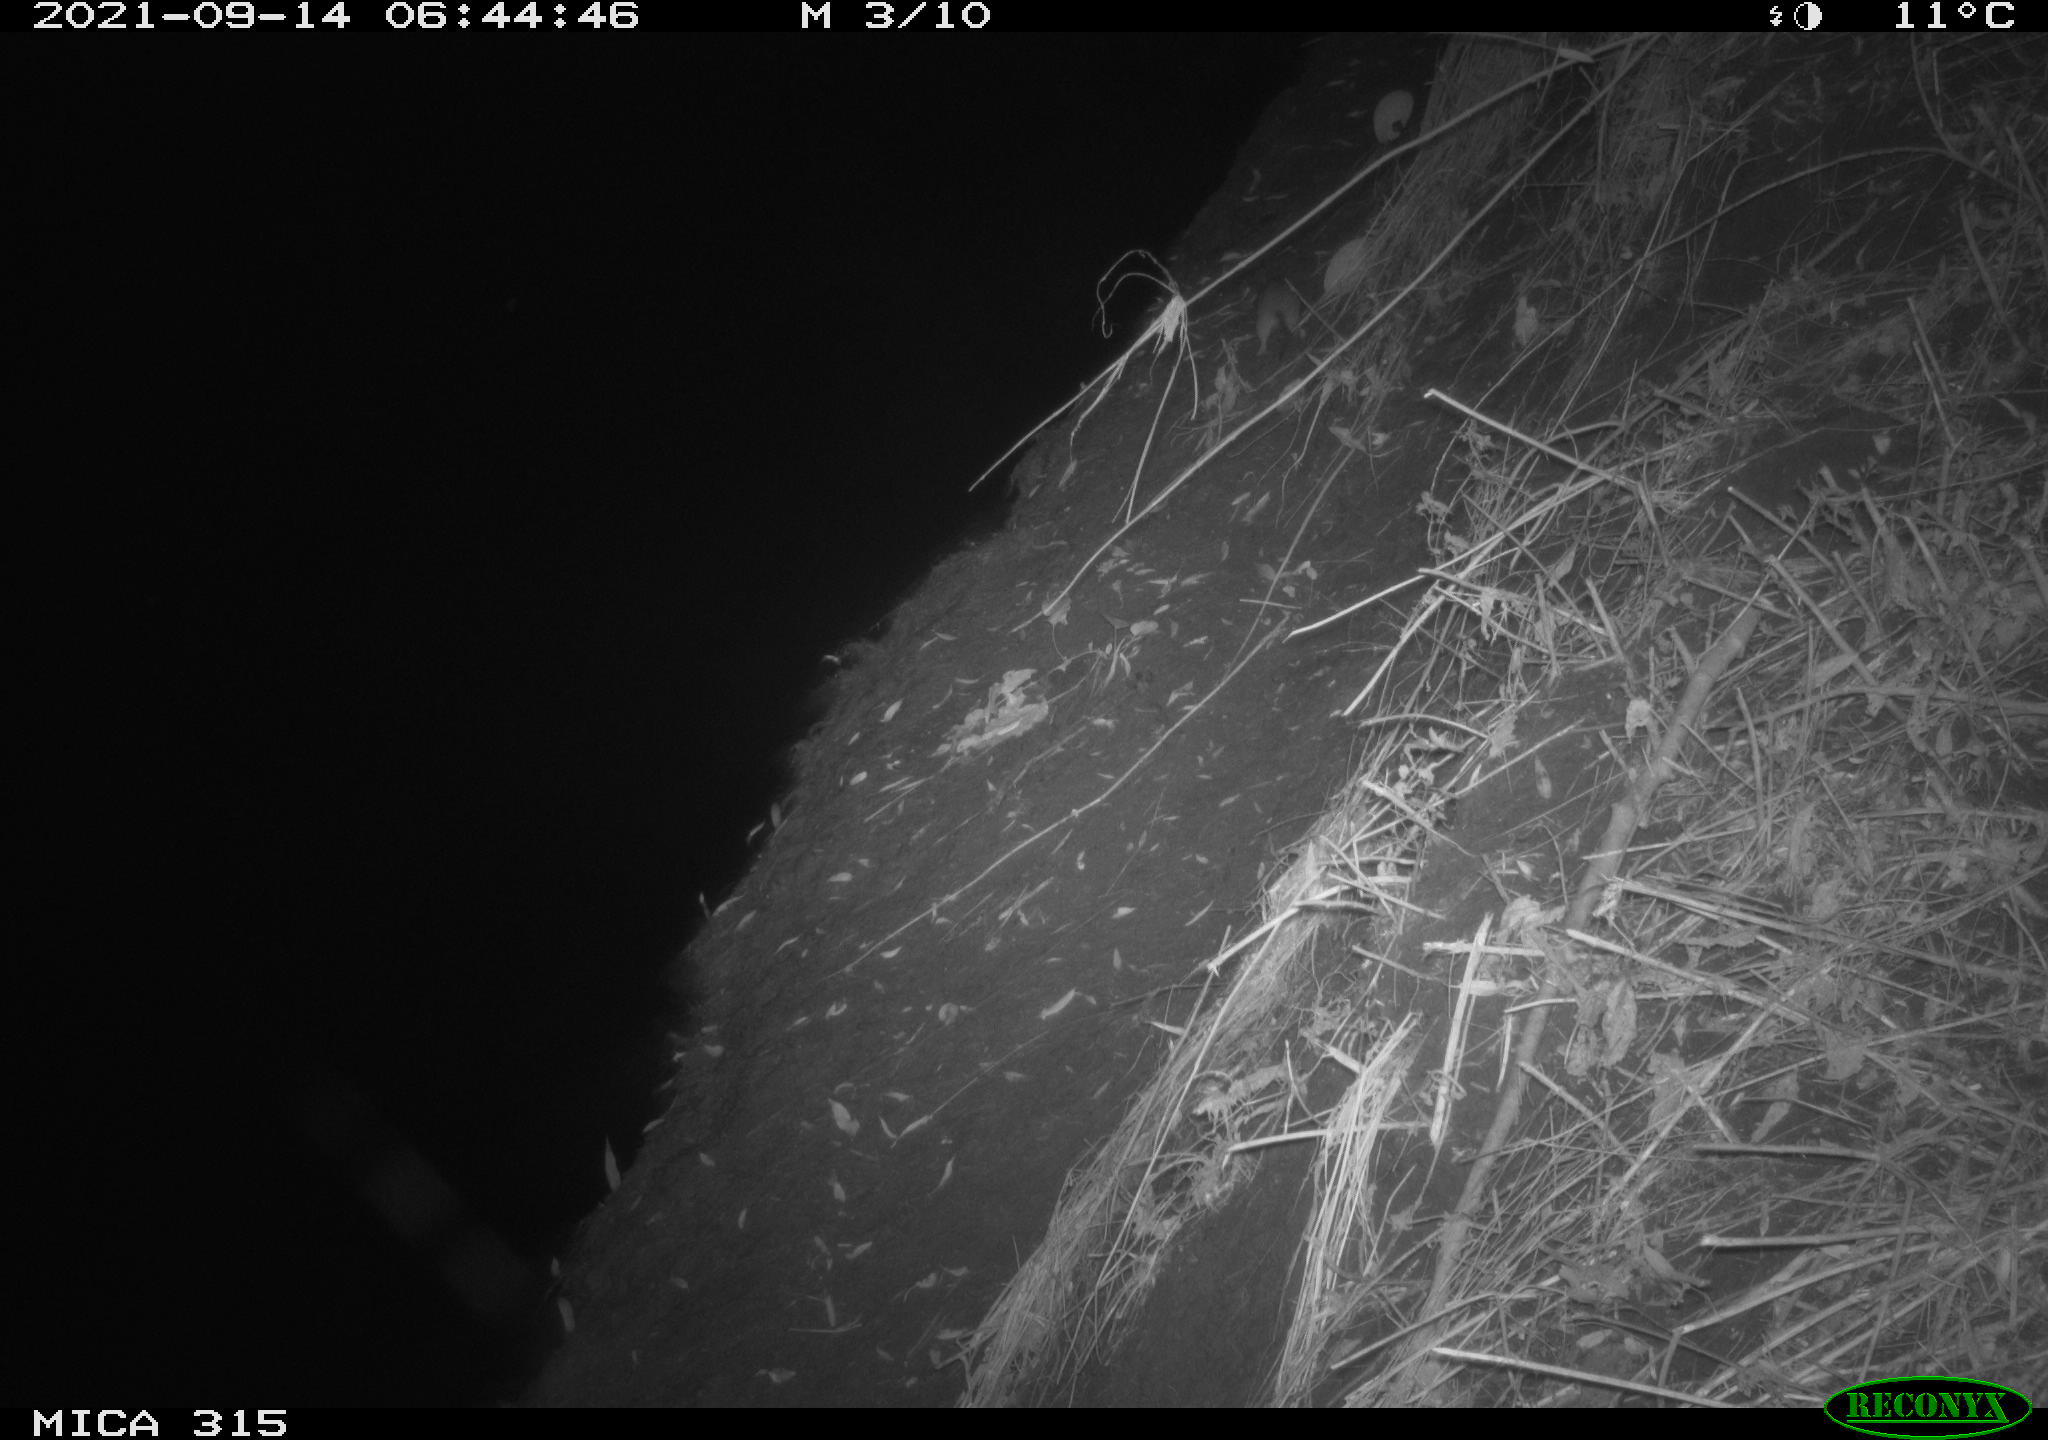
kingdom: Animalia
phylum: Chordata
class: Mammalia
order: Rodentia
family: Muridae
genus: Rattus
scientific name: Rattus norvegicus
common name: Brown rat
